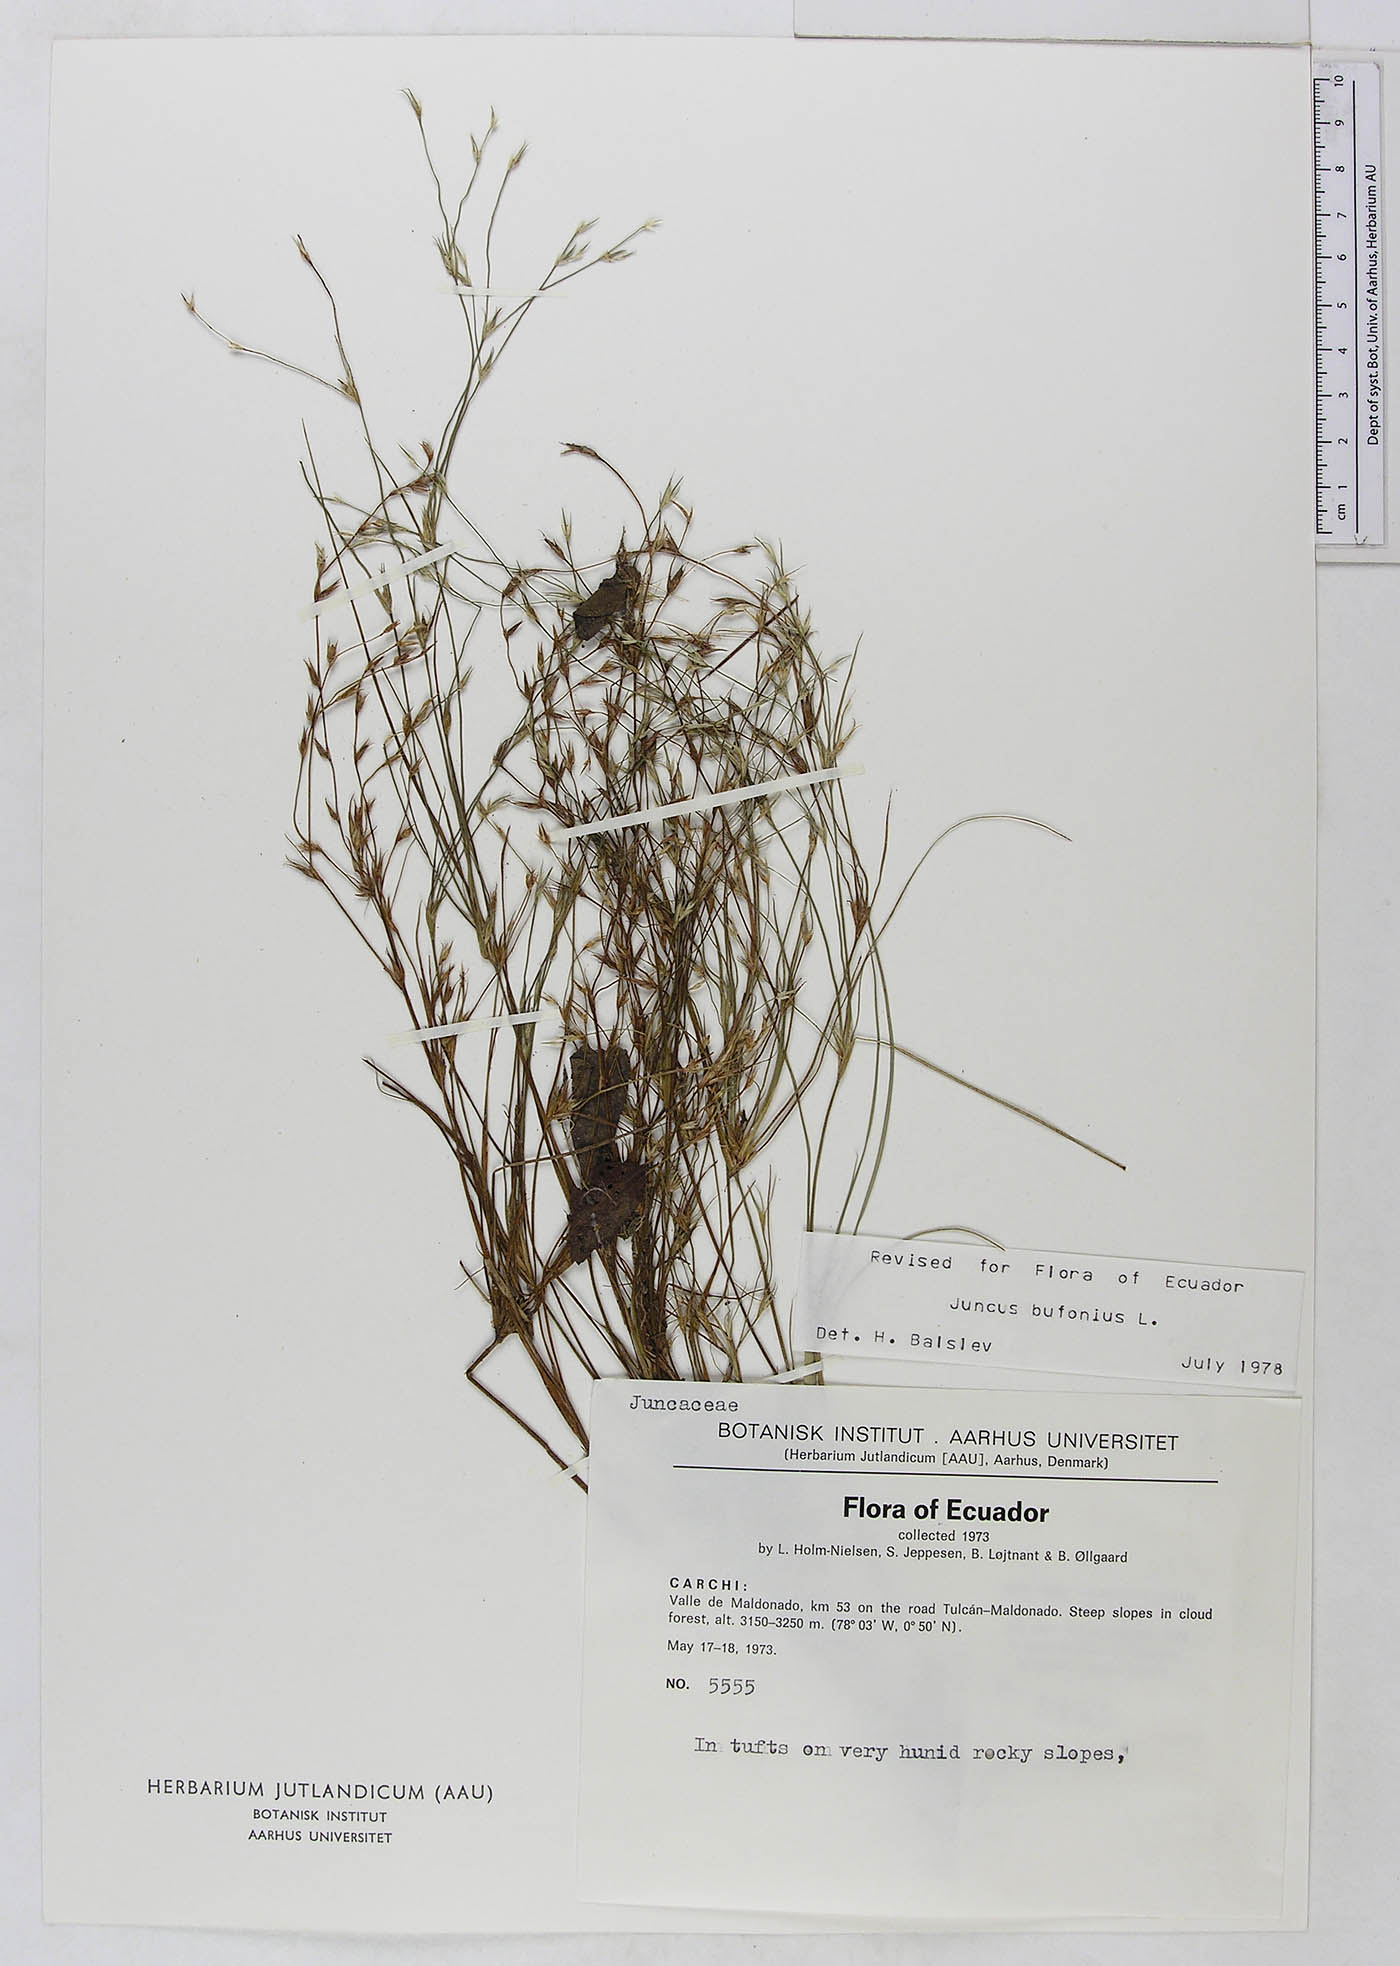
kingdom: Plantae
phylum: Tracheophyta
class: Liliopsida
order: Poales
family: Juncaceae
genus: Juncus
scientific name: Juncus bufonius
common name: Toad rush
